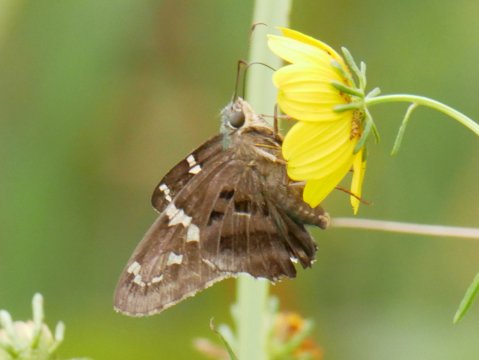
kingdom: Animalia
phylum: Arthropoda
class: Insecta
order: Lepidoptera
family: Hesperiidae
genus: Urbanus
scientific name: Urbanus proteus
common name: Long-tailed Skipper
